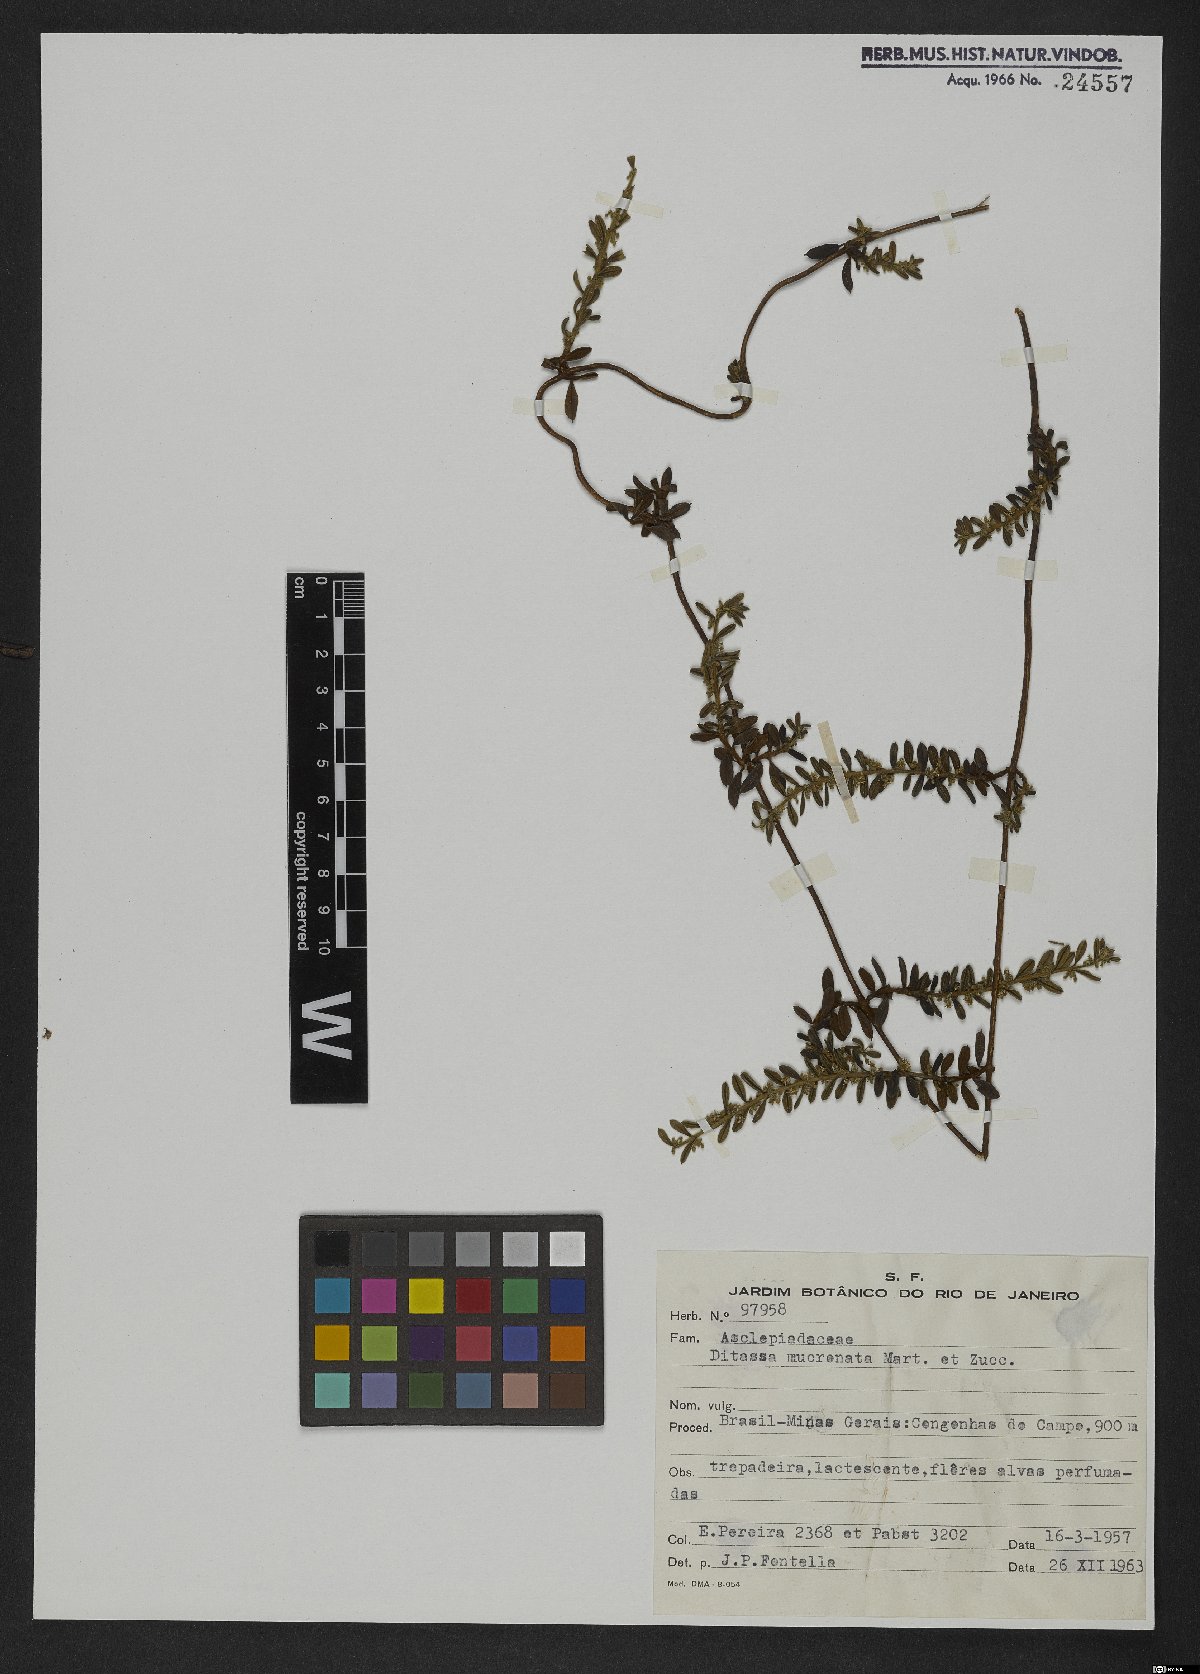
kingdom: Plantae
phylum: Tracheophyta
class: Magnoliopsida
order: Gentianales
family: Apocynaceae
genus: Ditassa
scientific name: Ditassa mucronata
